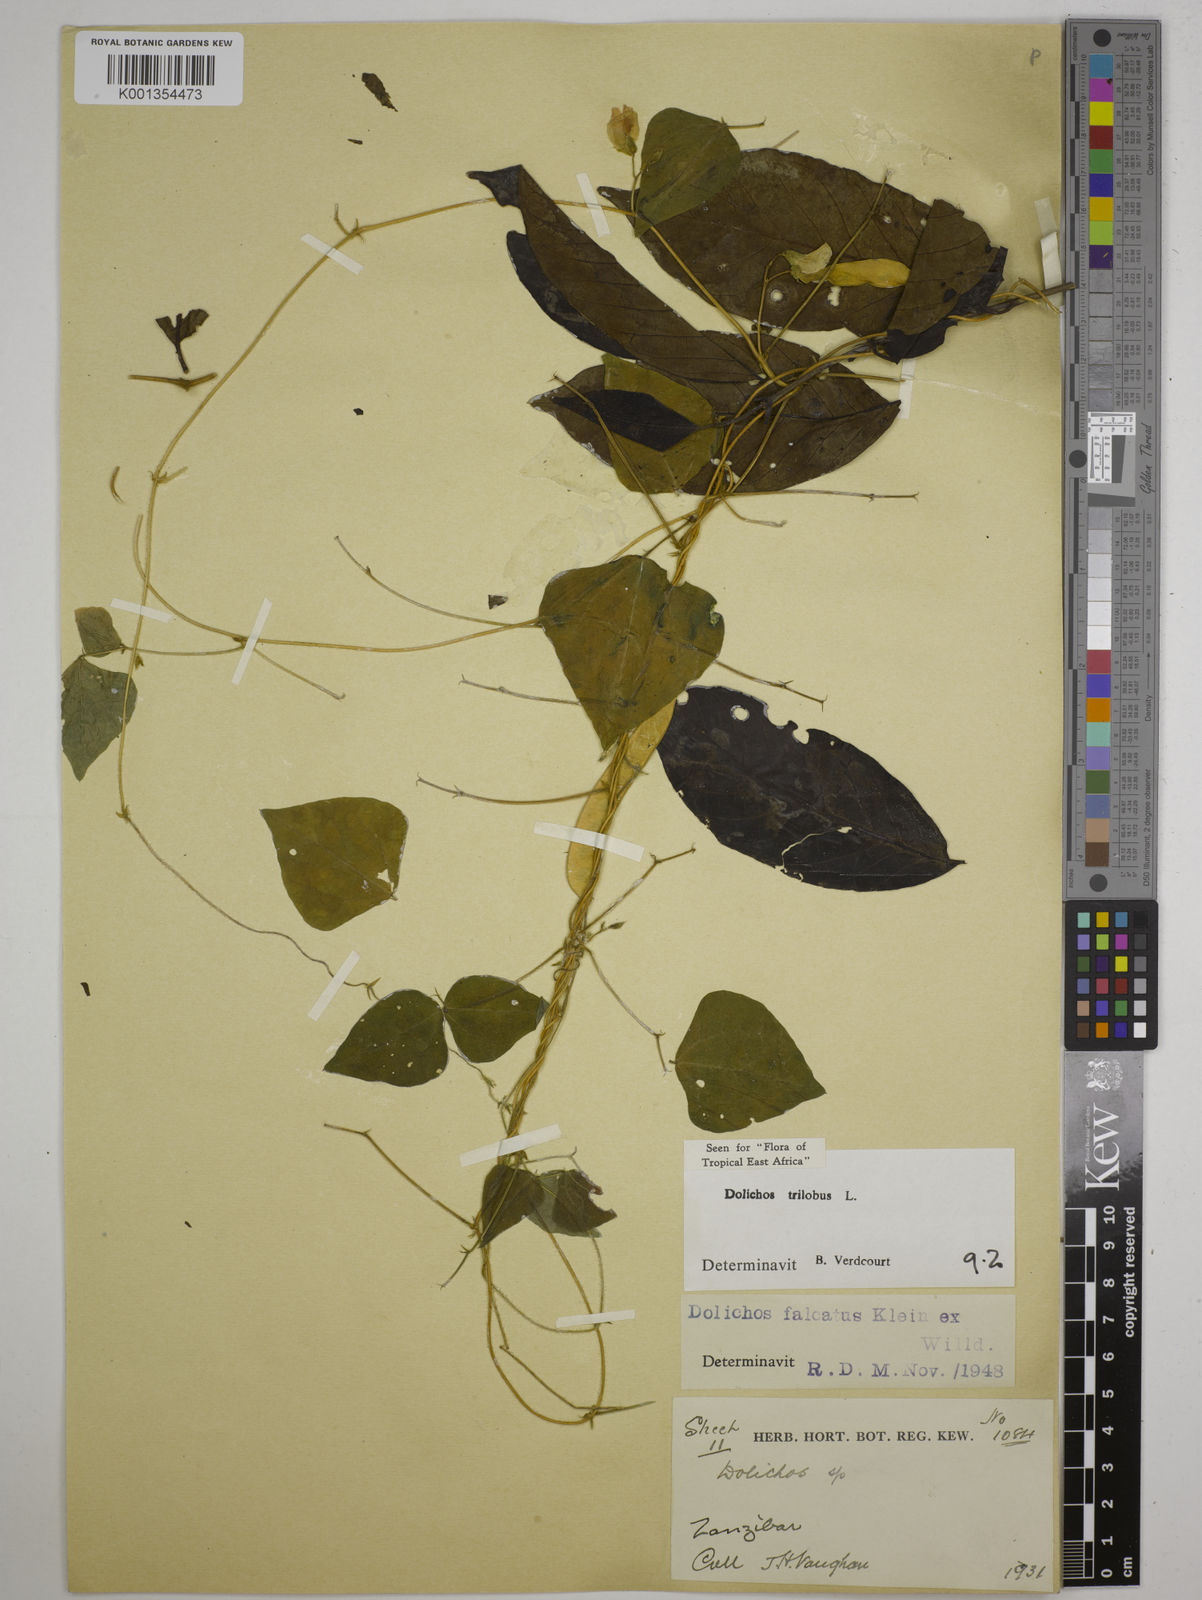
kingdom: Plantae
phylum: Tracheophyta
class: Magnoliopsida
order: Fabales
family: Fabaceae
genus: Dolichos
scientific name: Dolichos
